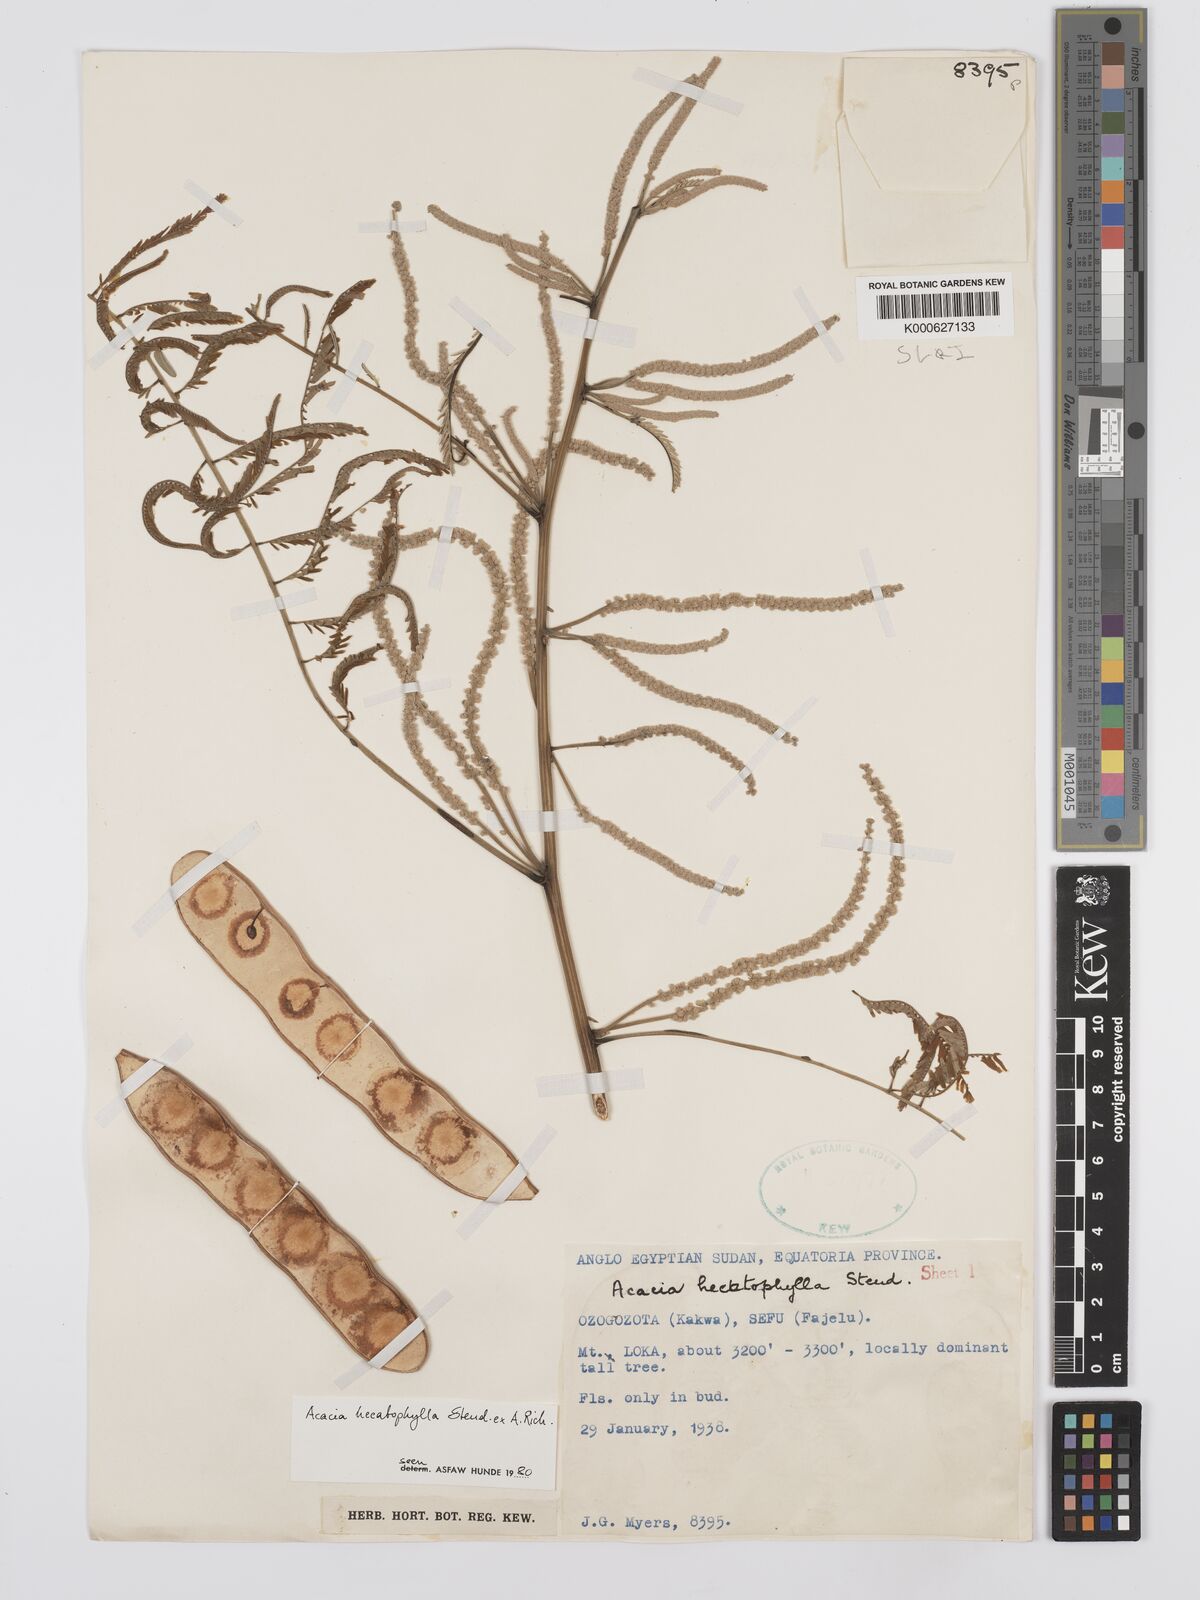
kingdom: Plantae
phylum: Tracheophyta
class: Magnoliopsida
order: Fabales
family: Fabaceae
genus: Senegalia
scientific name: Senegalia hecatophylla
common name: Long pod
